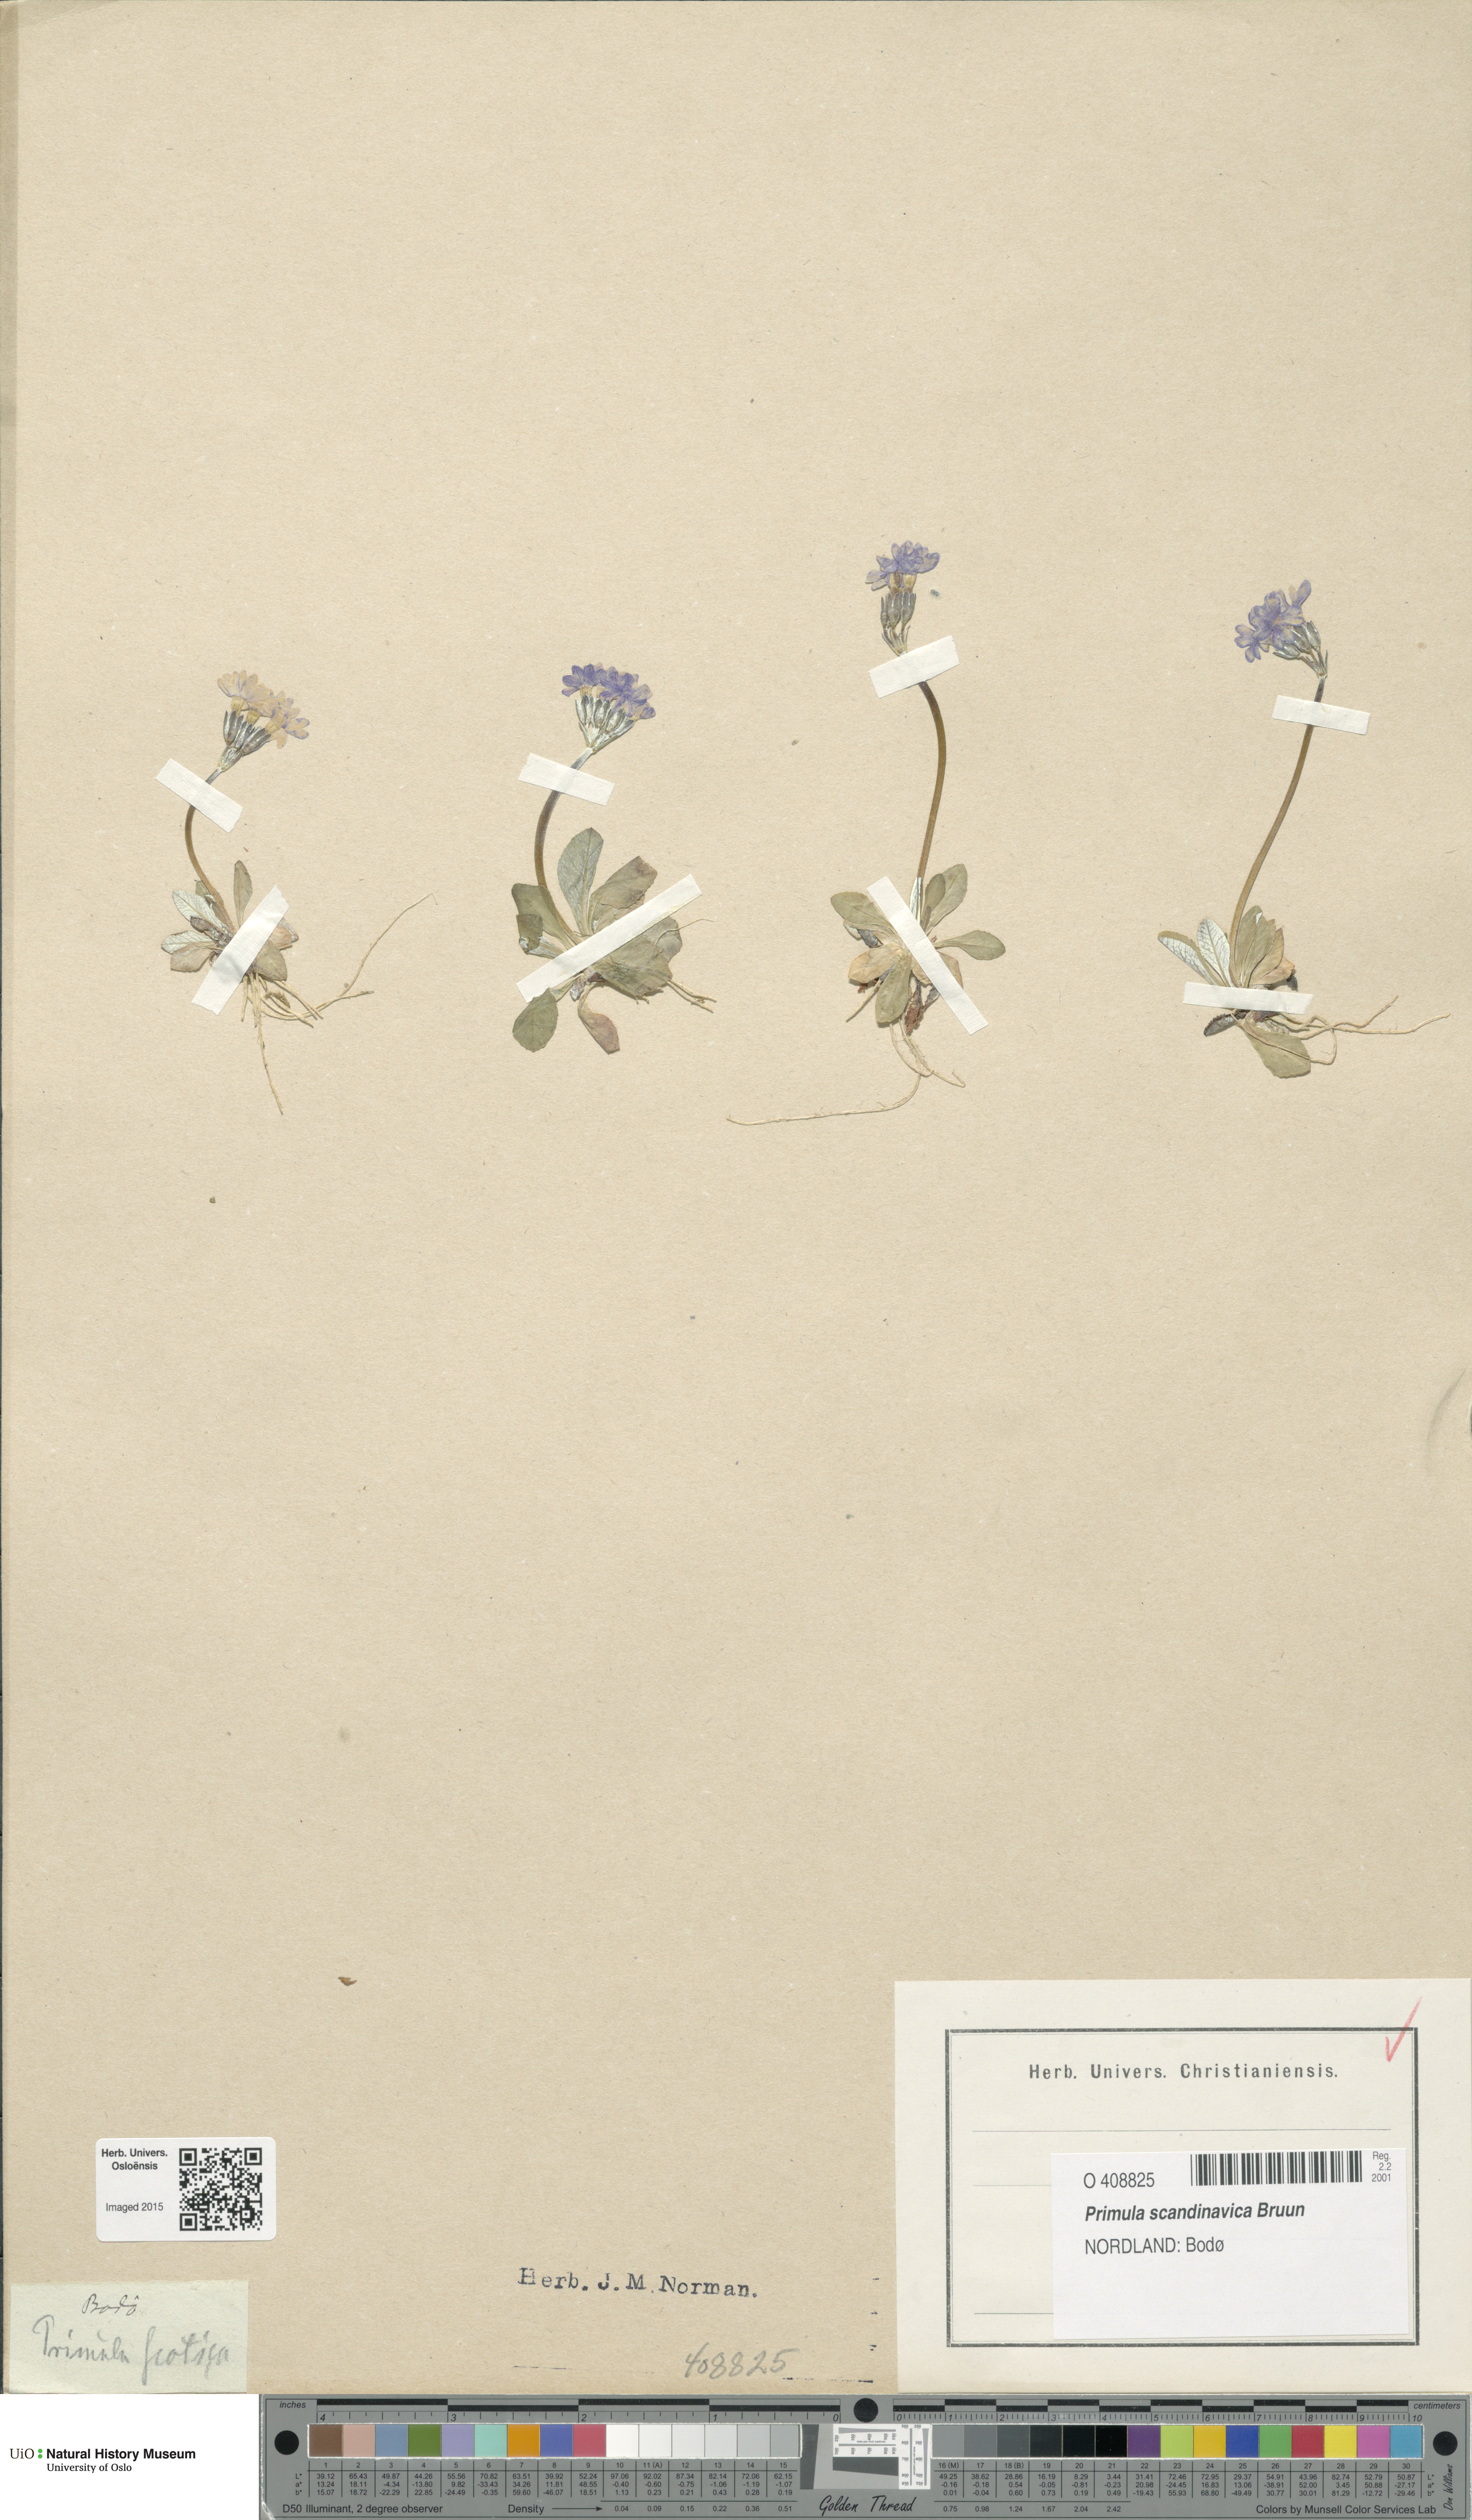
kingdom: Plantae
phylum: Tracheophyta
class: Magnoliopsida
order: Ericales
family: Primulaceae
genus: Primula
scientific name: Primula scandinavica
